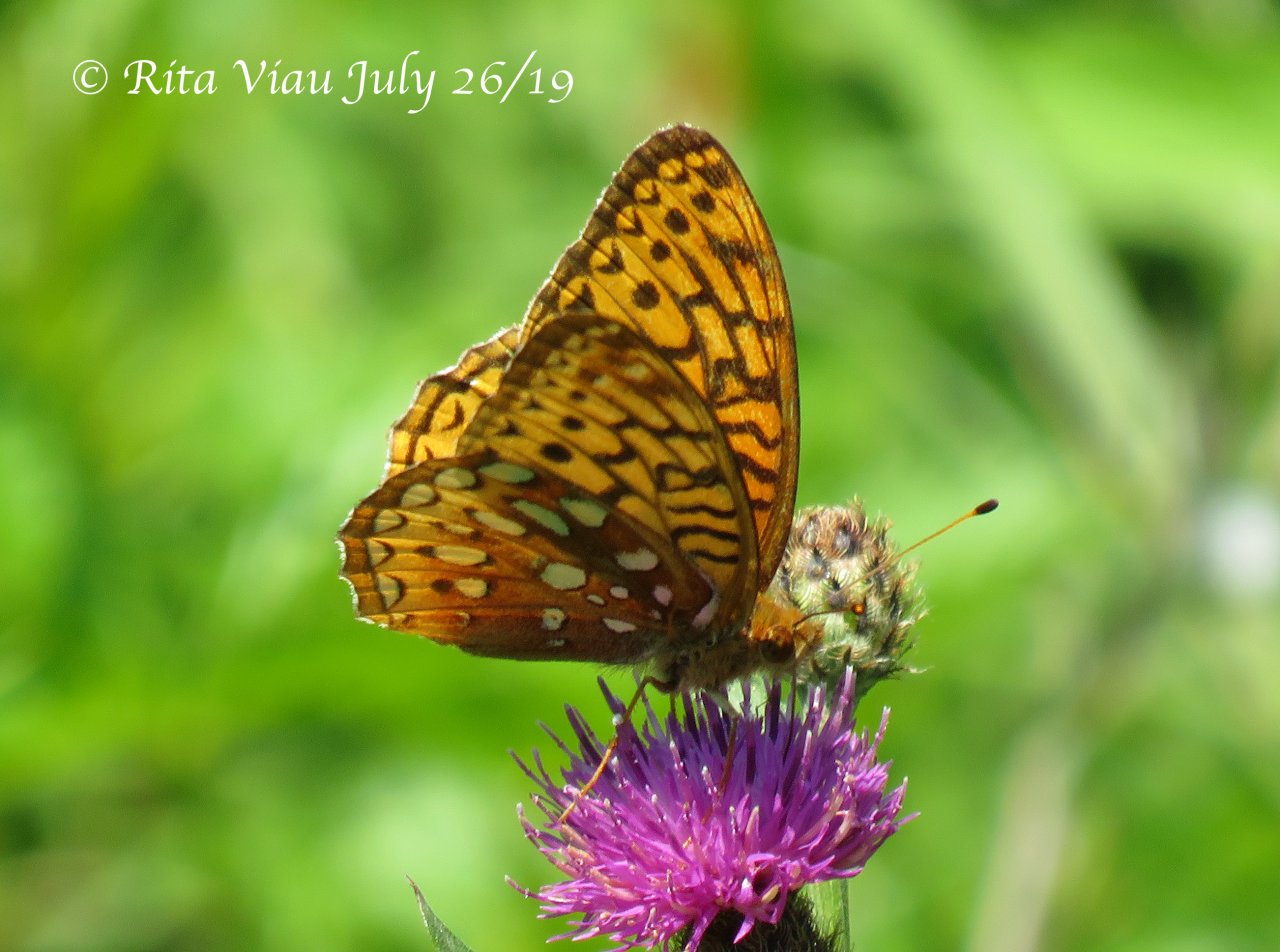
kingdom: Animalia
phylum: Arthropoda
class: Insecta
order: Lepidoptera
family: Nymphalidae
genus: Speyeria
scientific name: Speyeria cybele
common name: Great Spangled Fritillary
